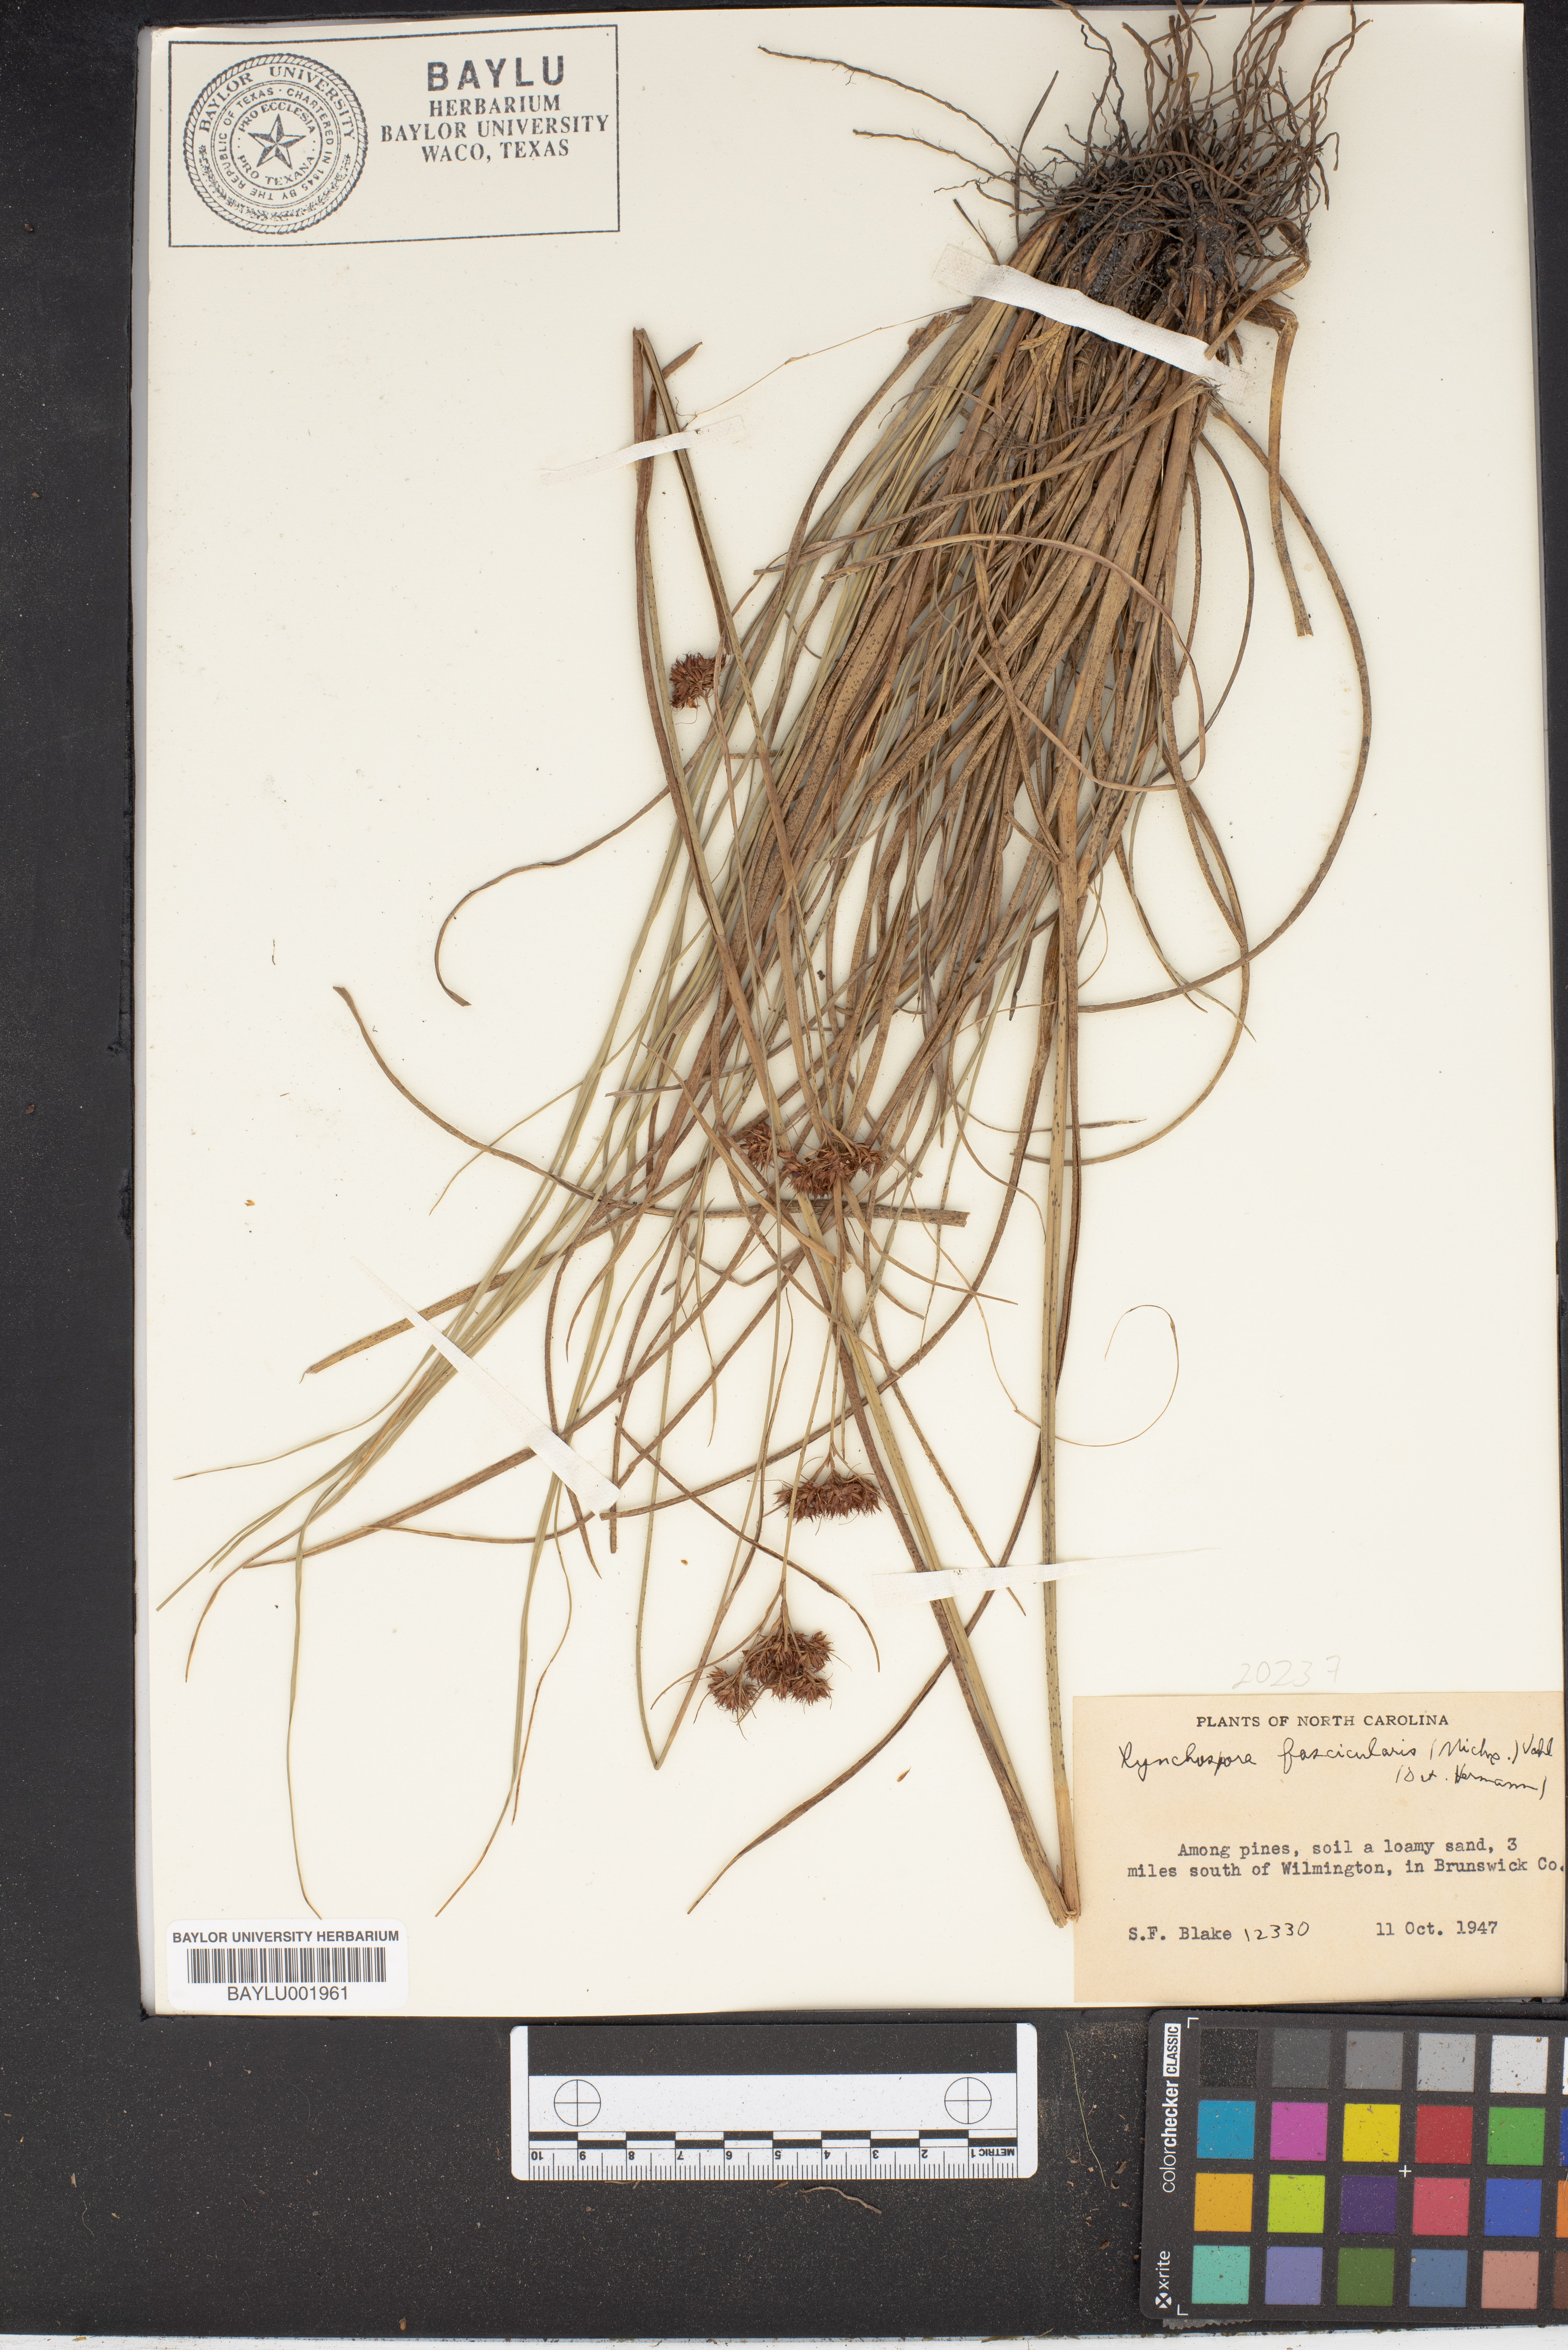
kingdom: Plantae
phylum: Tracheophyta
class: Liliopsida
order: Poales
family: Cyperaceae
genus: Rhynchospora
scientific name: Rhynchospora fascicularis
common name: Fascicled beak sedge
